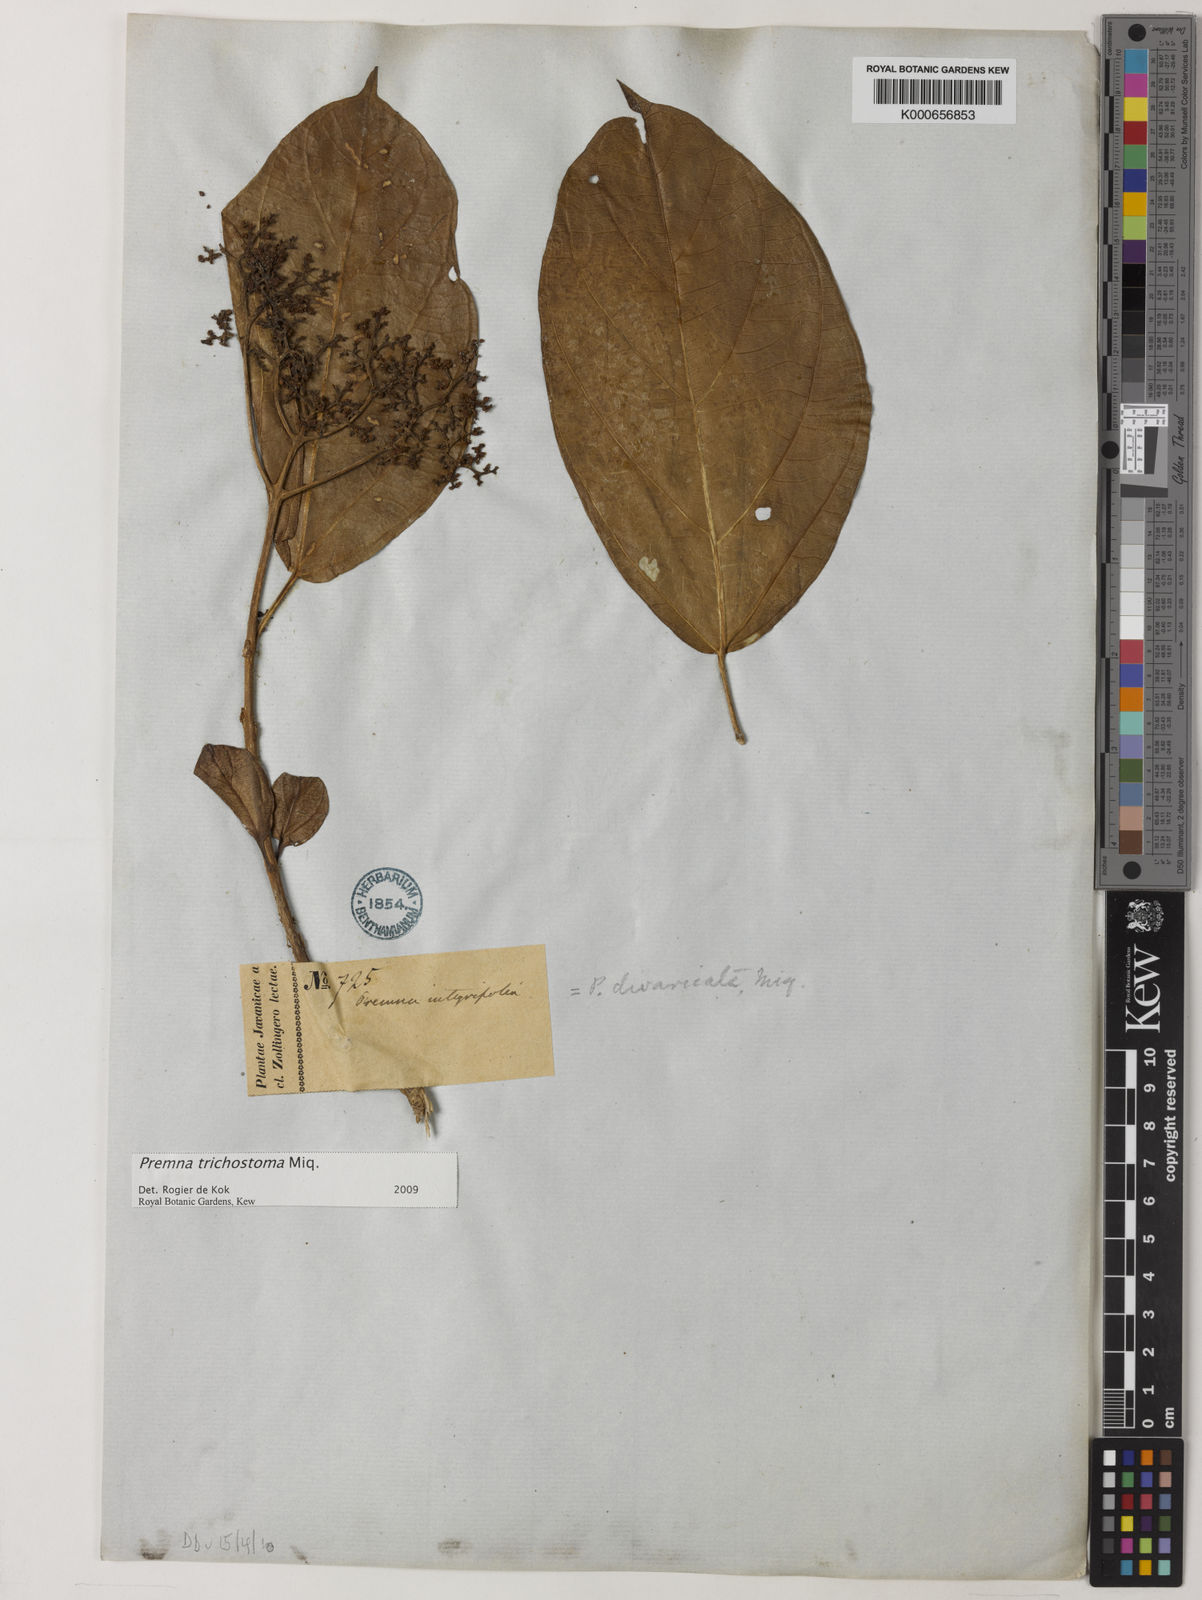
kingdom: Plantae
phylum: Tracheophyta
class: Magnoliopsida
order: Lamiales
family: Lamiaceae
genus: Premna
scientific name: Premna trichostoma
